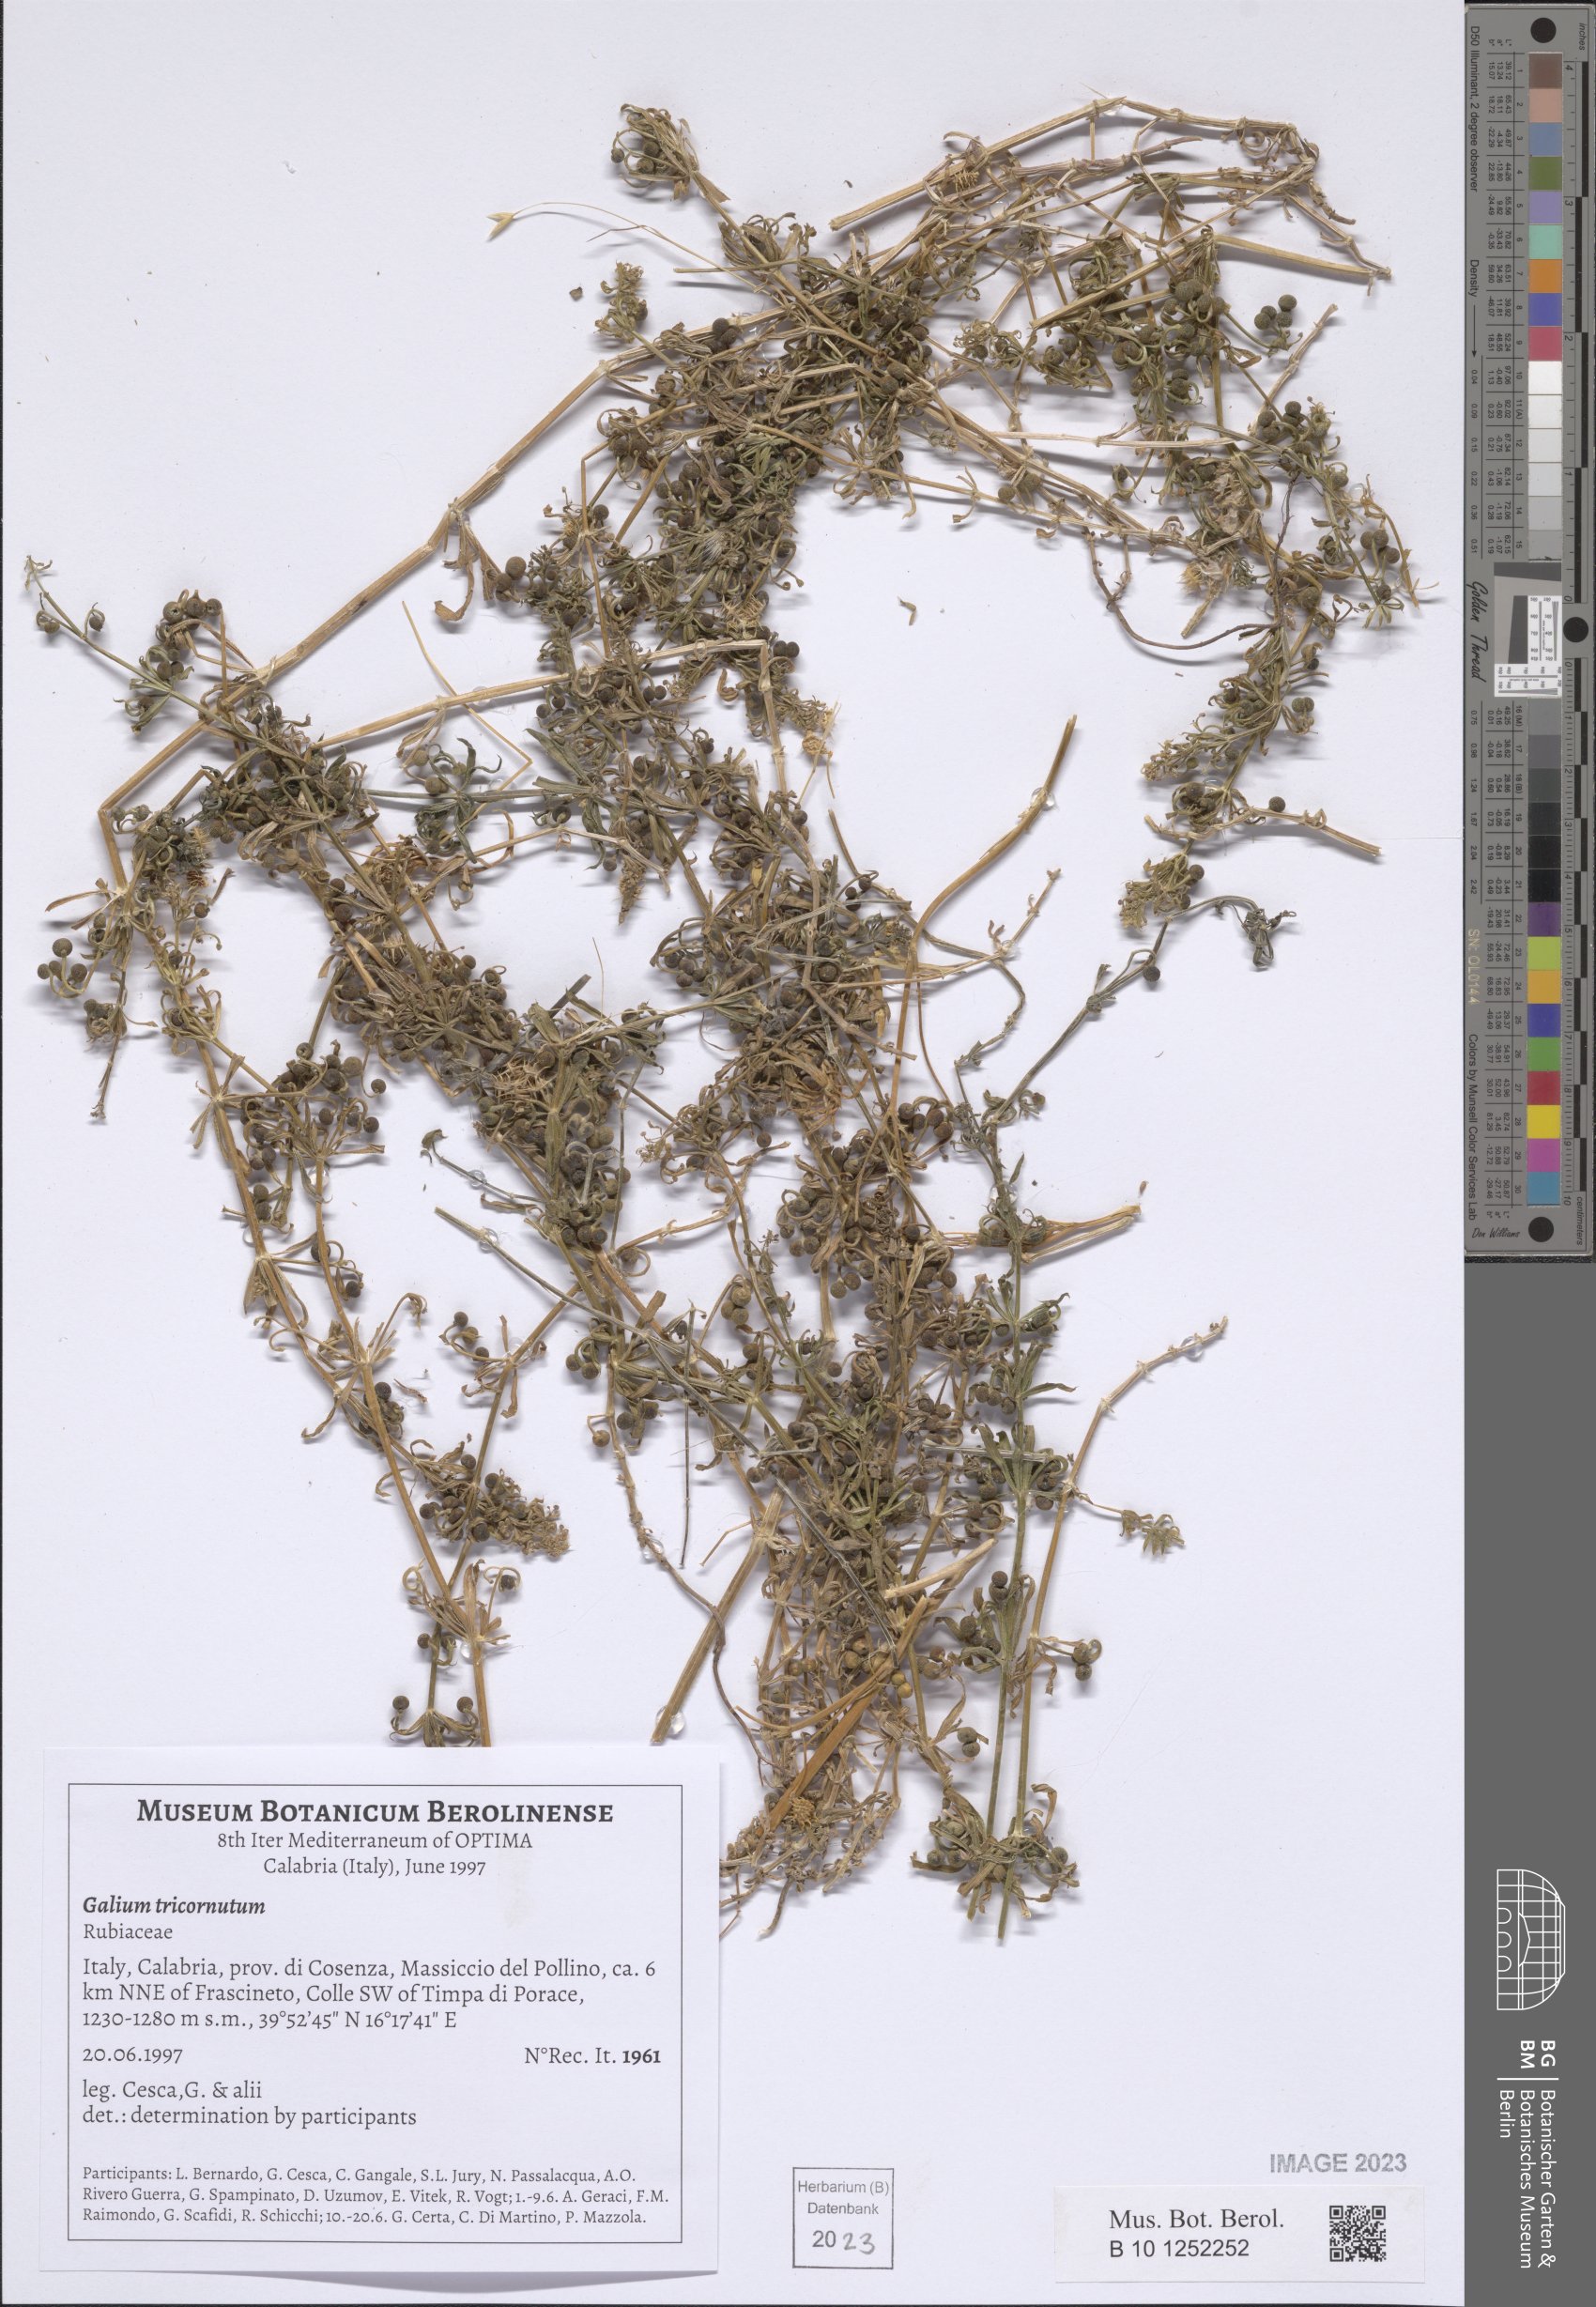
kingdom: Plantae
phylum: Tracheophyta
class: Magnoliopsida
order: Gentianales
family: Rubiaceae
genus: Galium
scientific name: Galium tricornutum
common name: Corn cleavers
